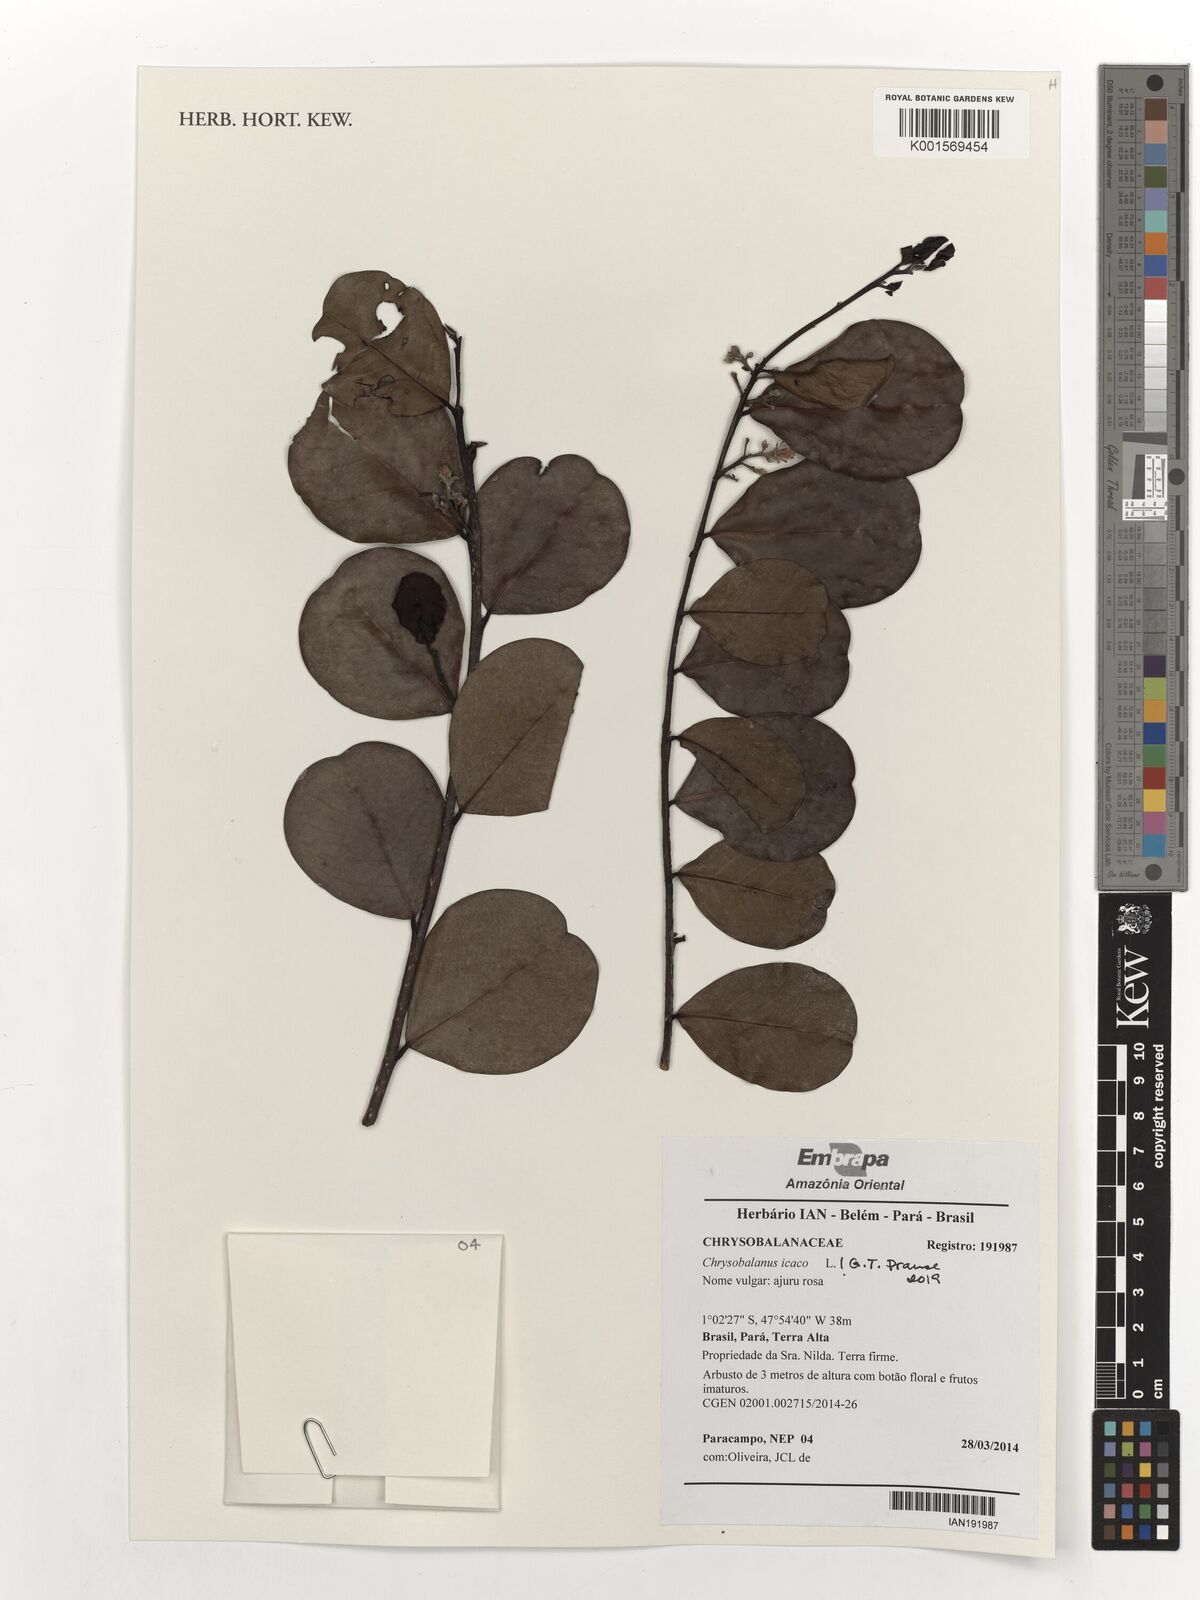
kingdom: Plantae
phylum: Tracheophyta
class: Magnoliopsida
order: Malpighiales
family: Chrysobalanaceae
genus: Chrysobalanus
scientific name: Chrysobalanus icaco
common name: Coco plum
